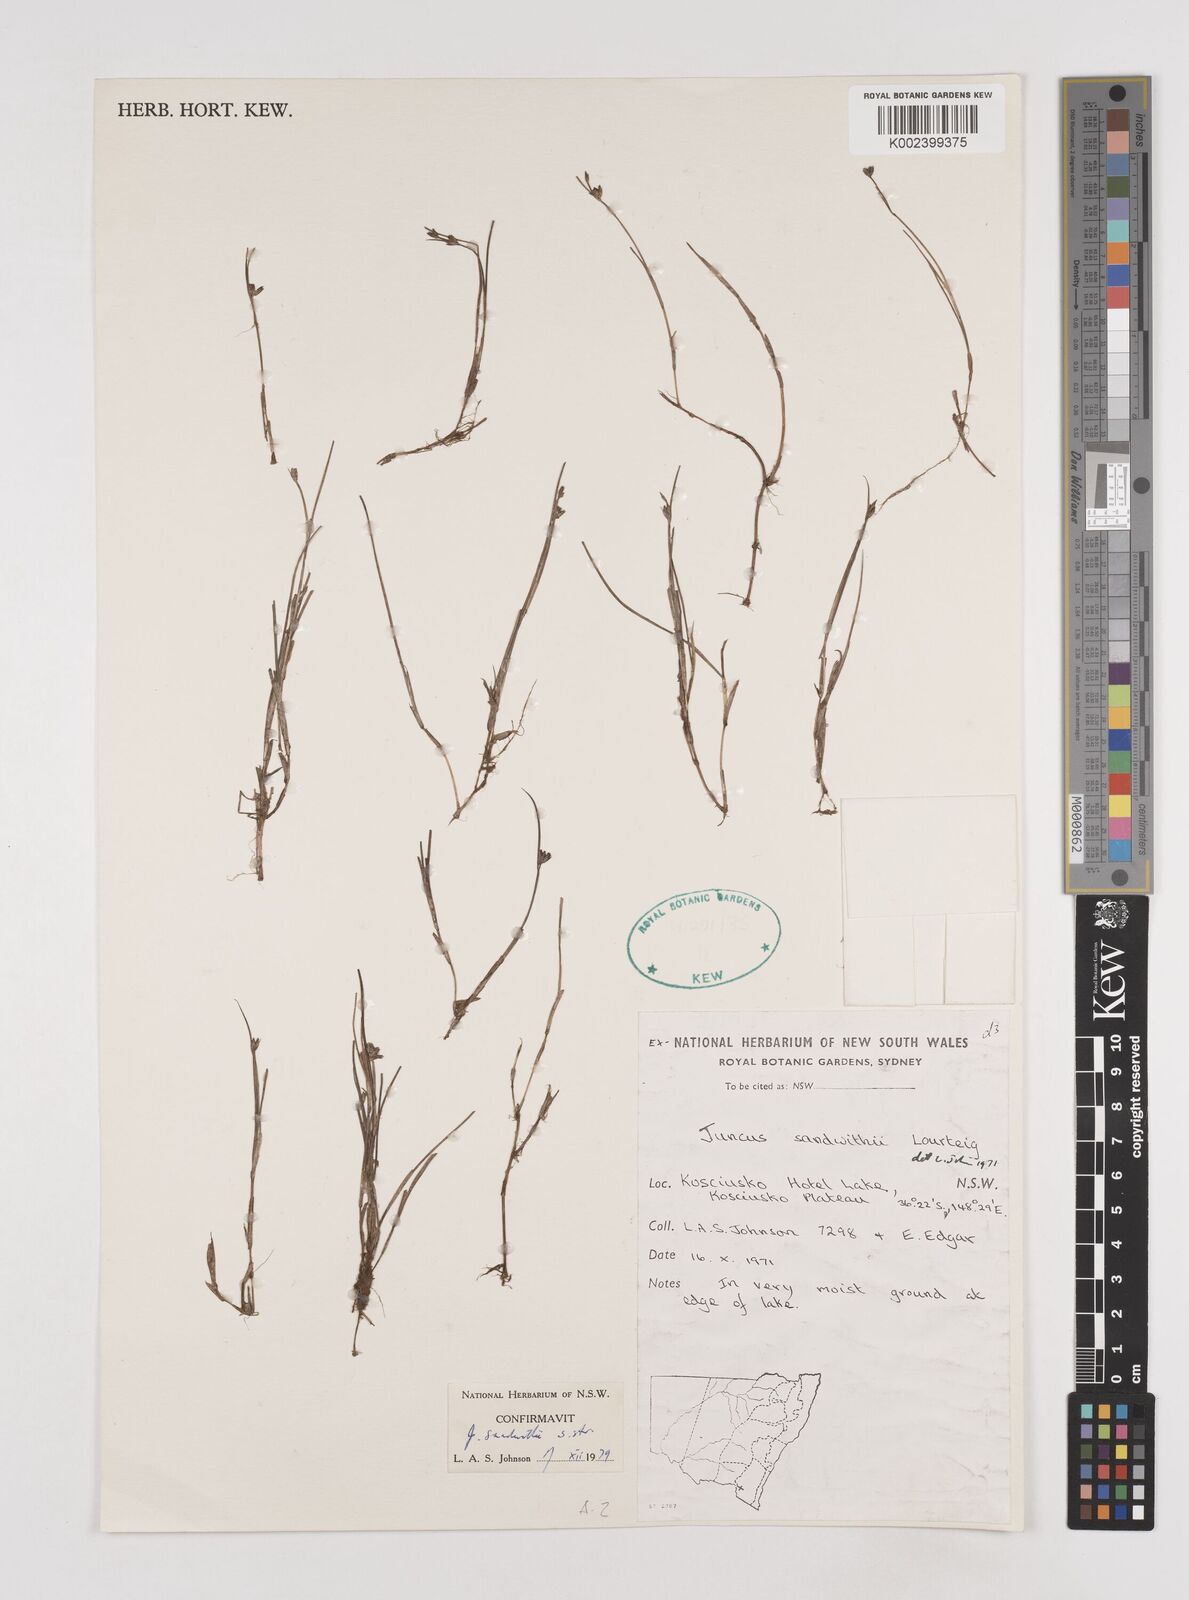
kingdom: Plantae
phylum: Tracheophyta
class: Liliopsida
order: Poales
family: Juncaceae
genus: Juncus
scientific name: Juncus sandwithii
